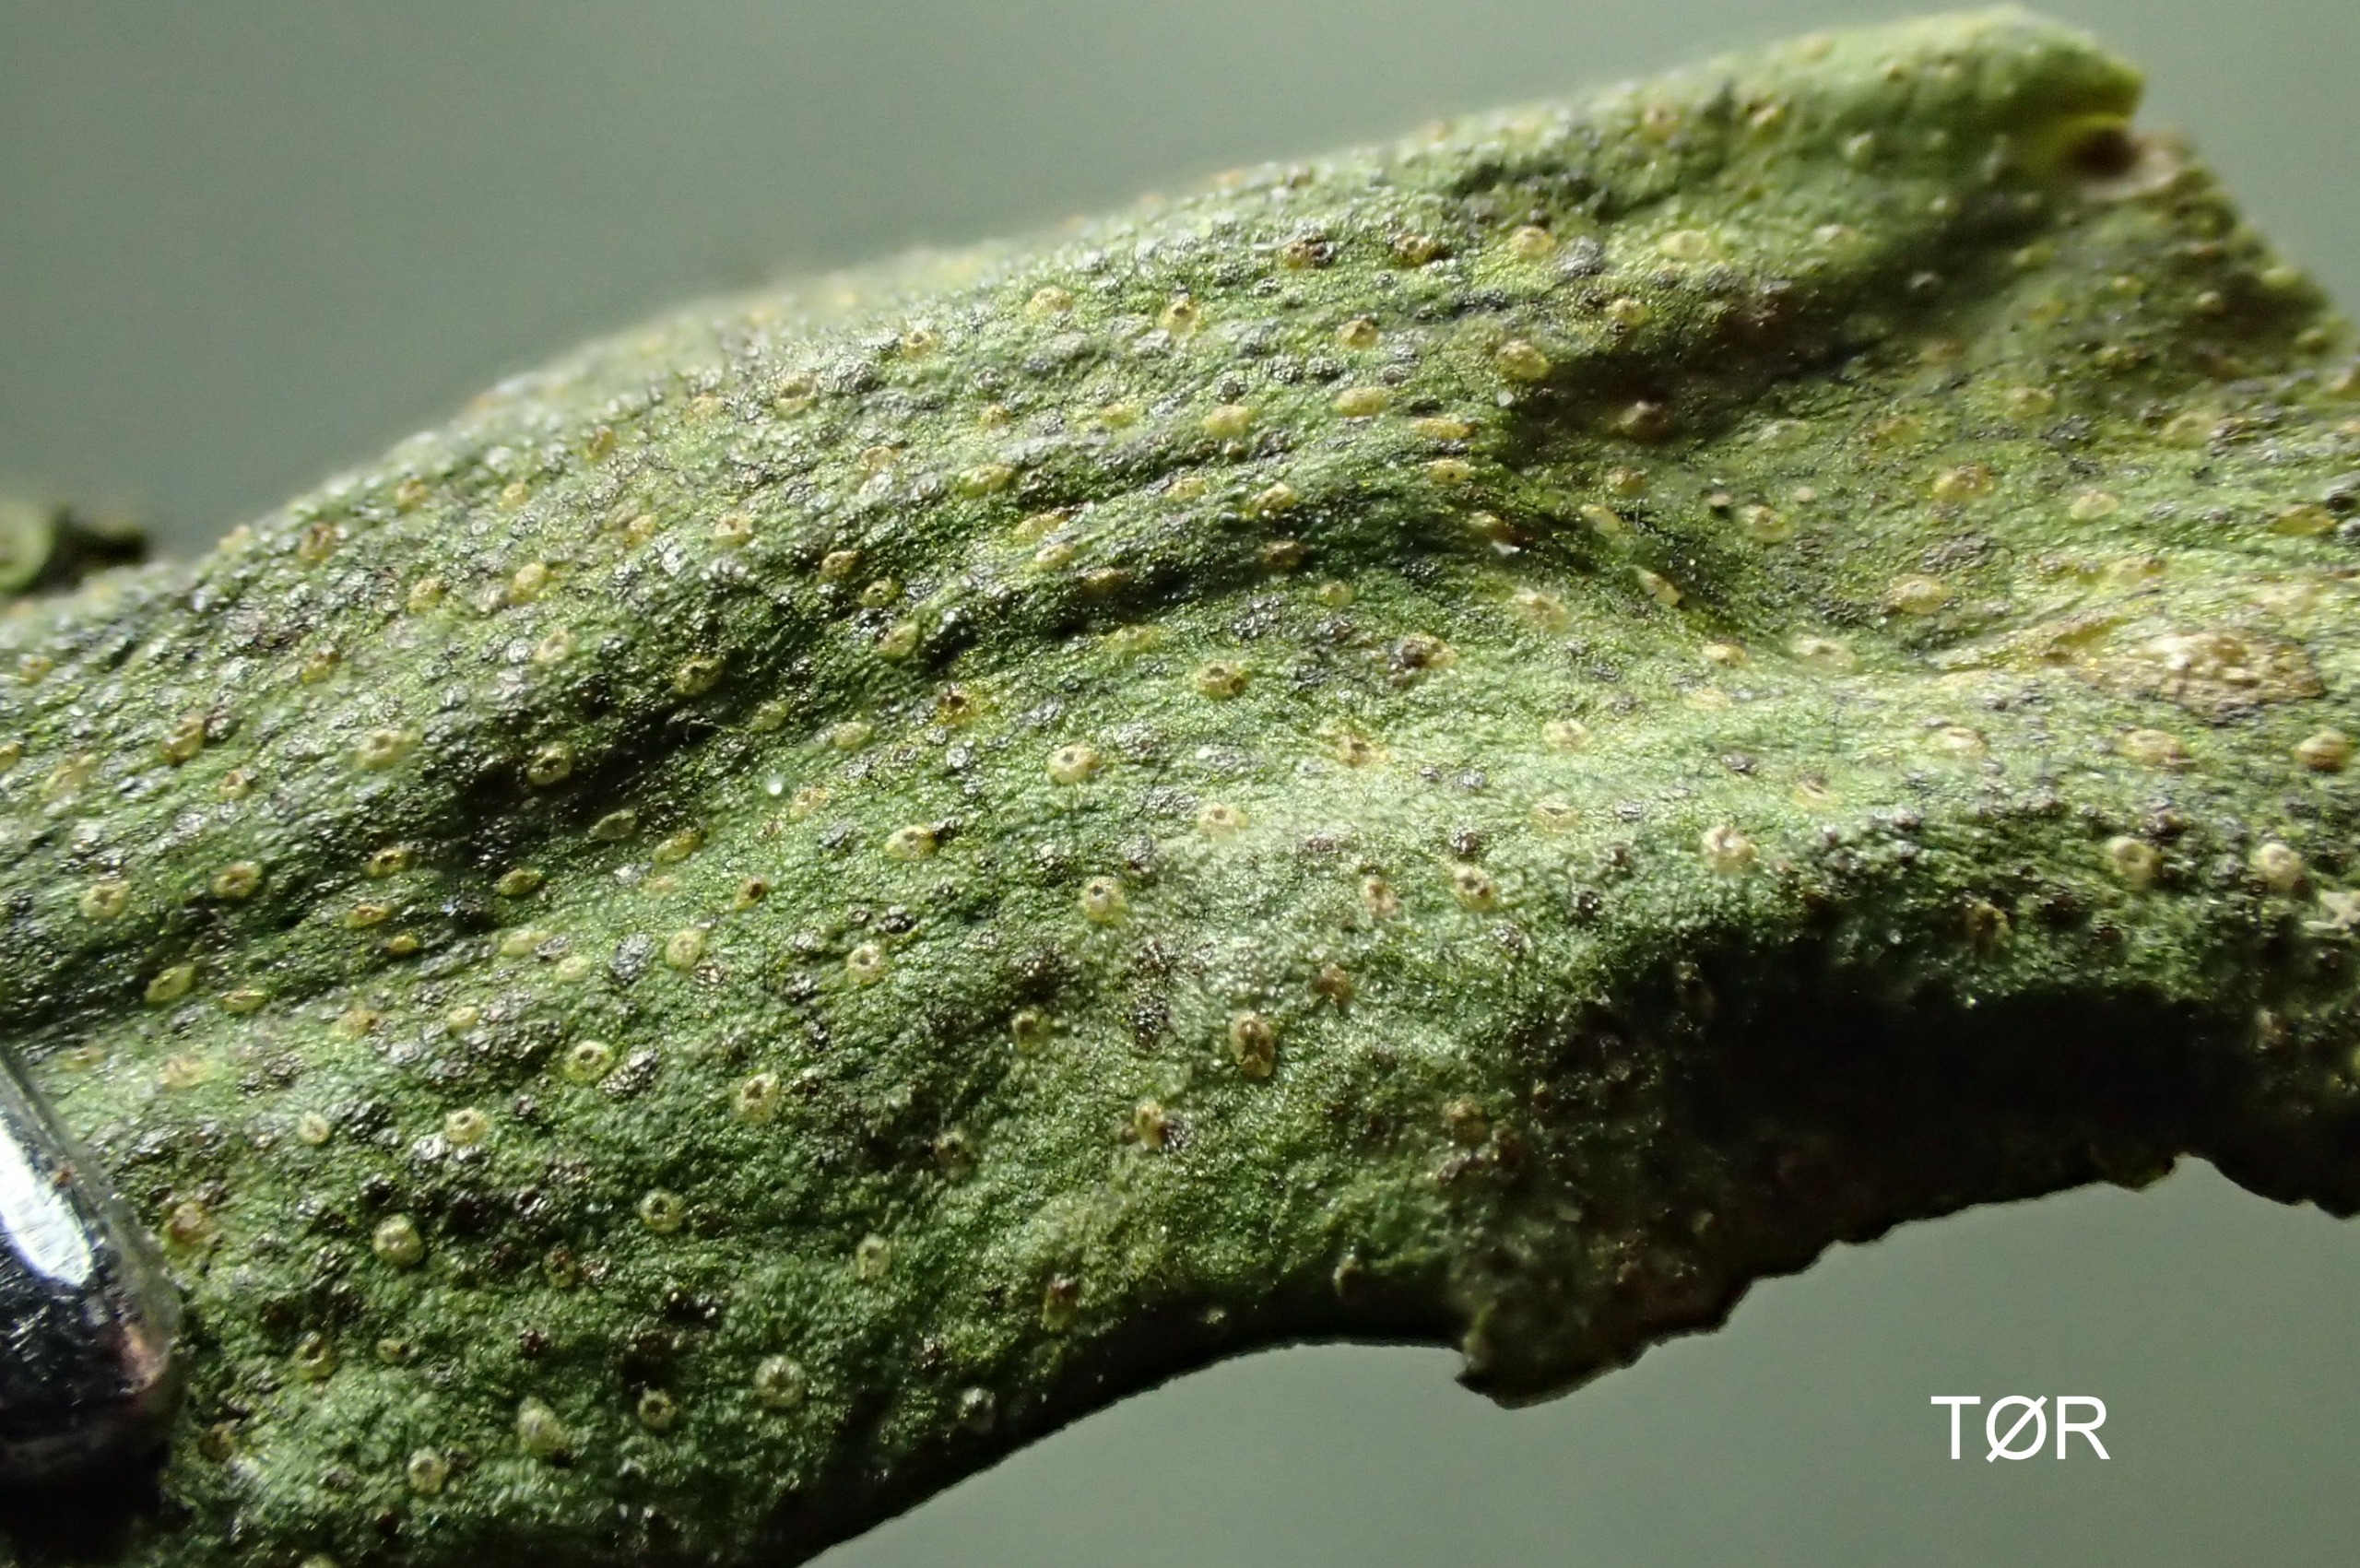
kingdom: Plantae
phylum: Marchantiophyta
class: Marchantiopsida
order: Marchantiales
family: Conocephalaceae
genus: Conocephalum
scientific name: Conocephalum conicum
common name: Glat krokodillemos
